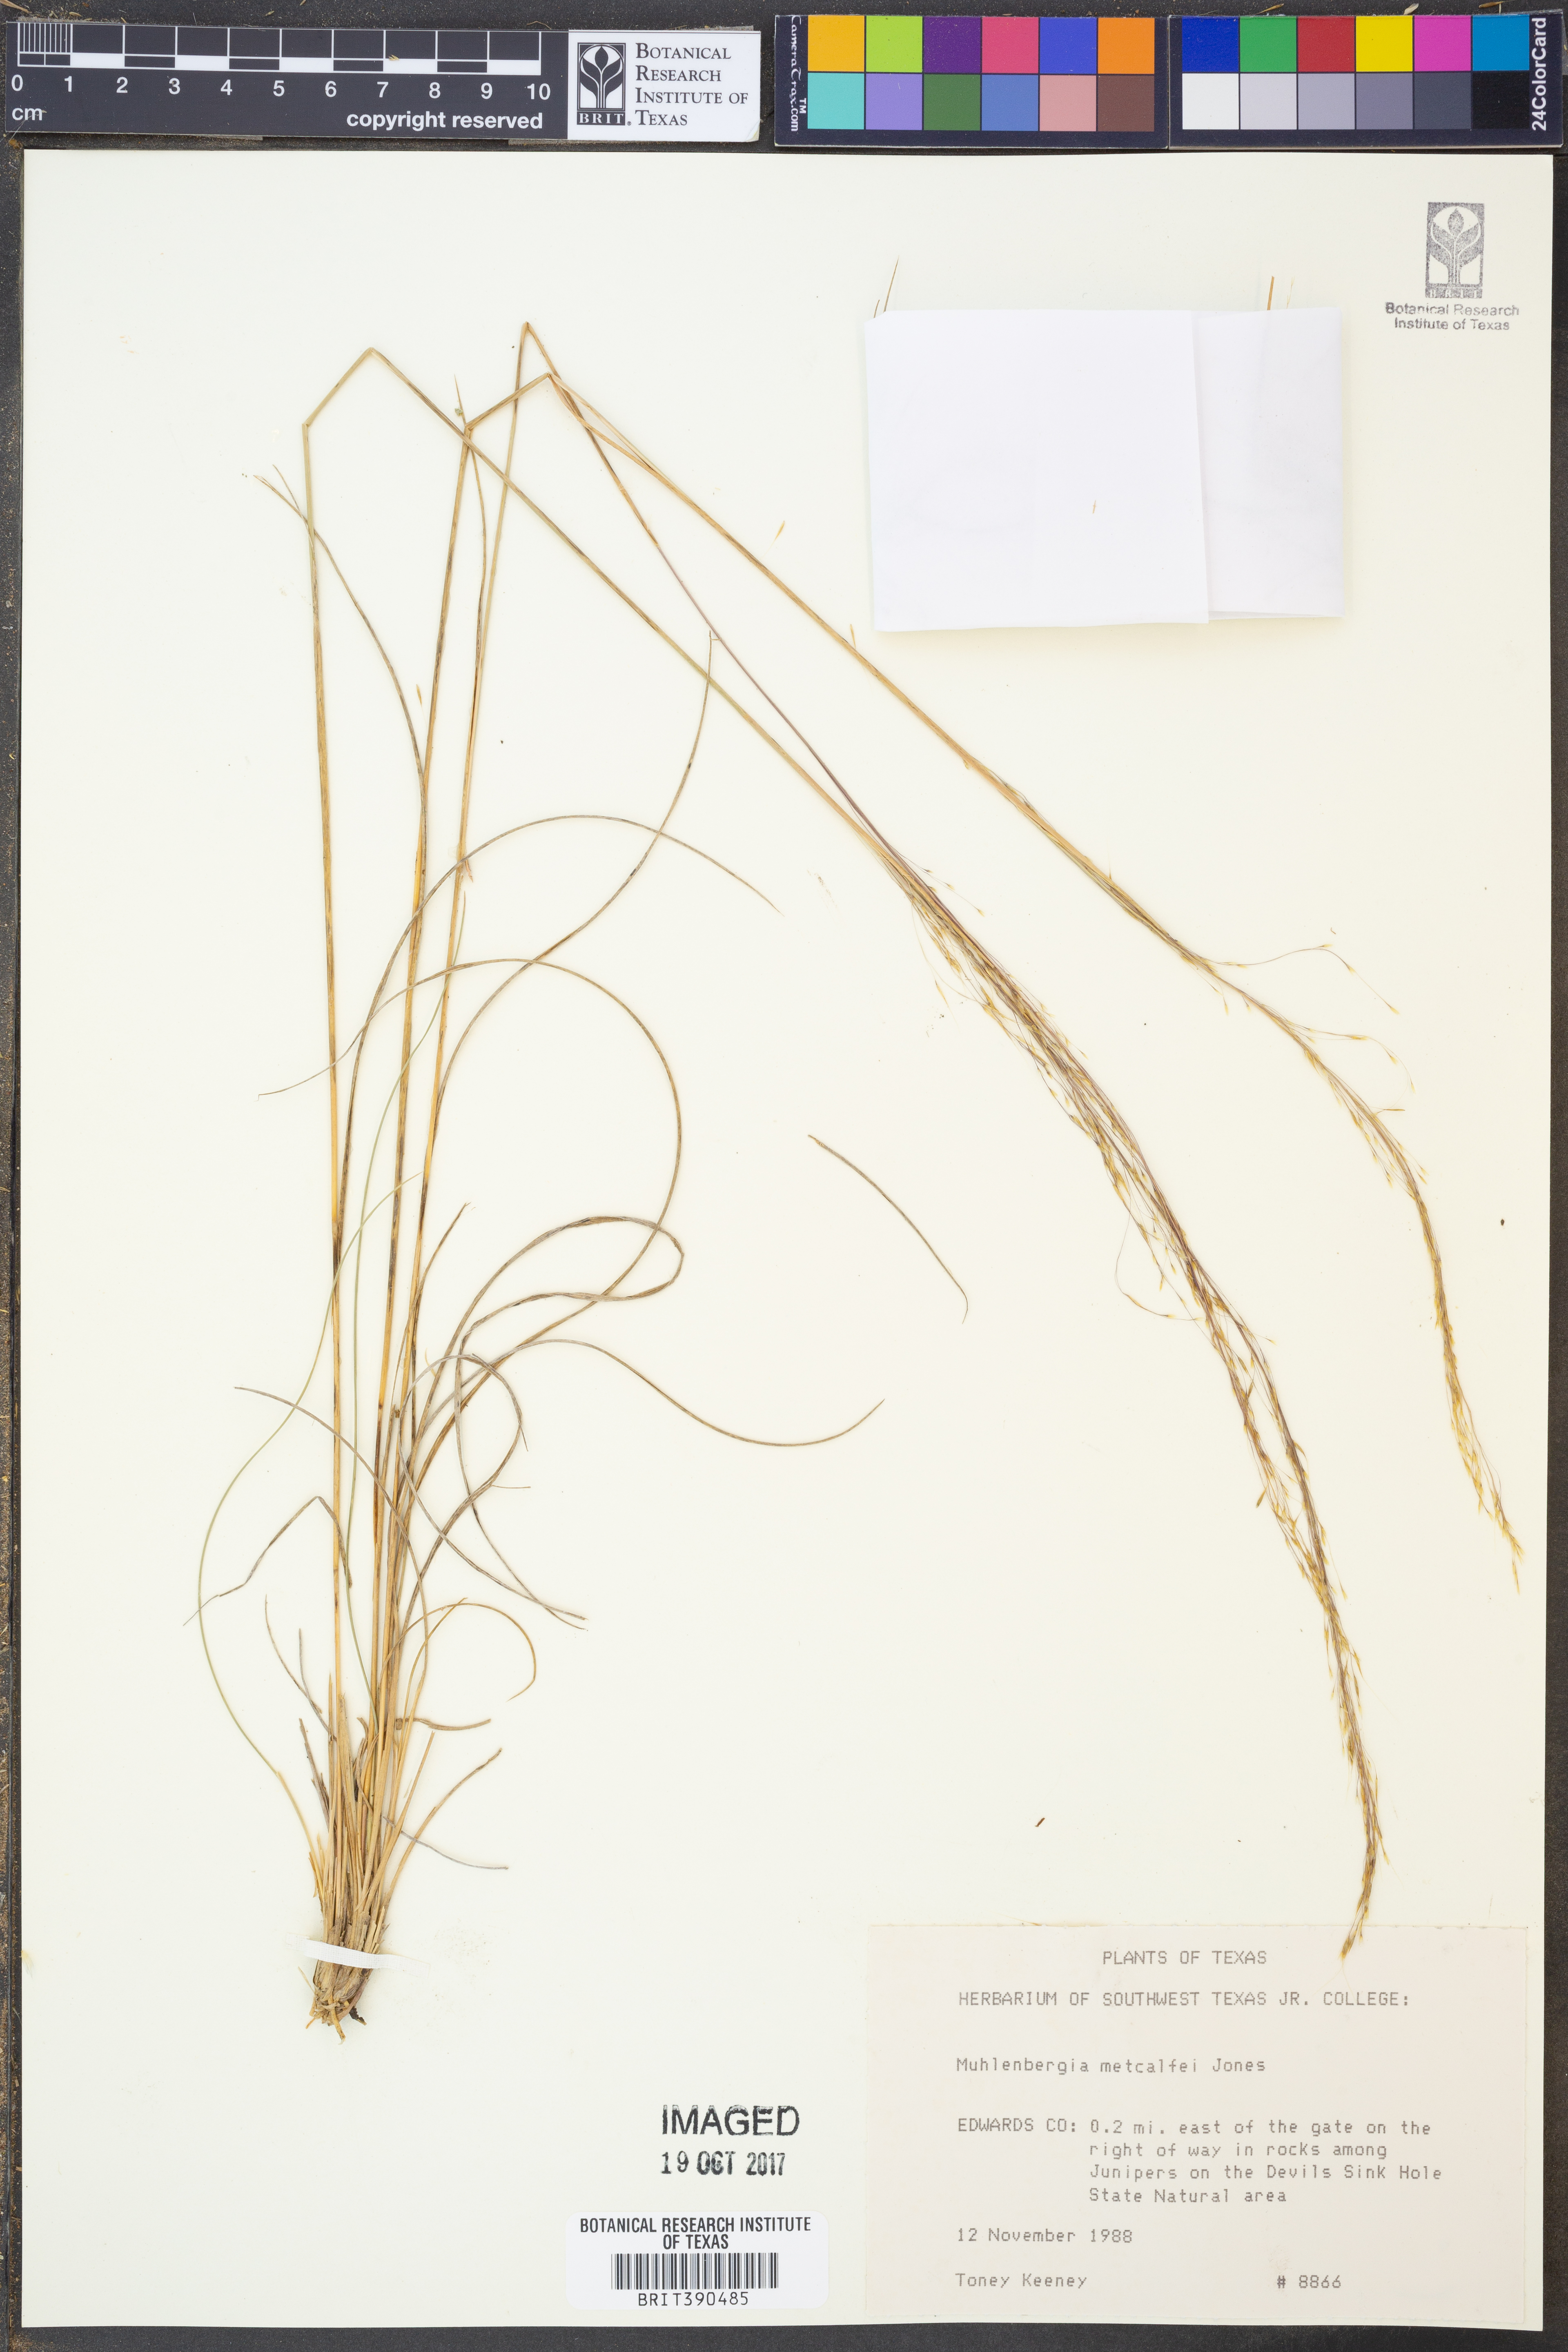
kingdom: Plantae
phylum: Tracheophyta
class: Liliopsida
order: Poales
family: Poaceae
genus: Muhlenbergia
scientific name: Muhlenbergia rigida
